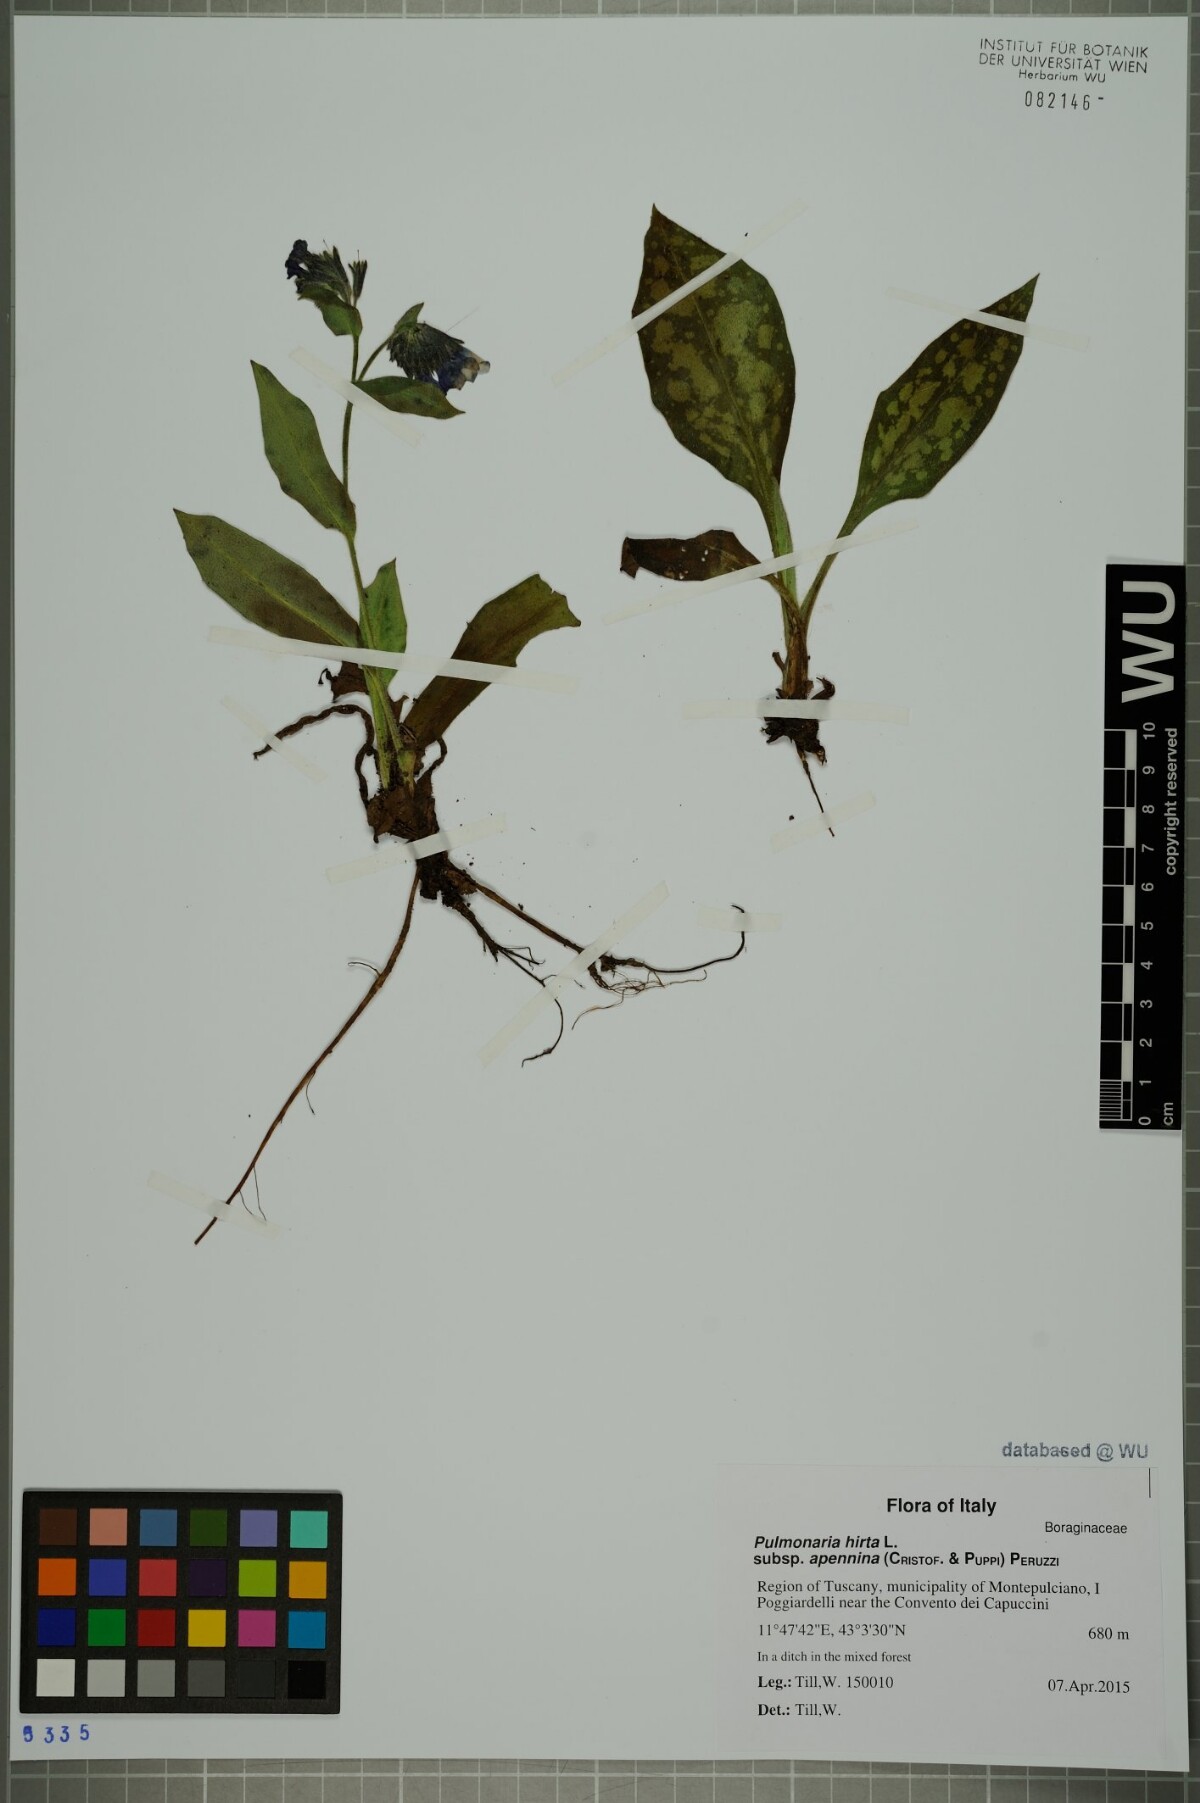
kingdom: Plantae
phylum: Tracheophyta
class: Magnoliopsida
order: Boraginales
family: Boraginaceae
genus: Pulmonaria
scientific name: Pulmonaria hirta
